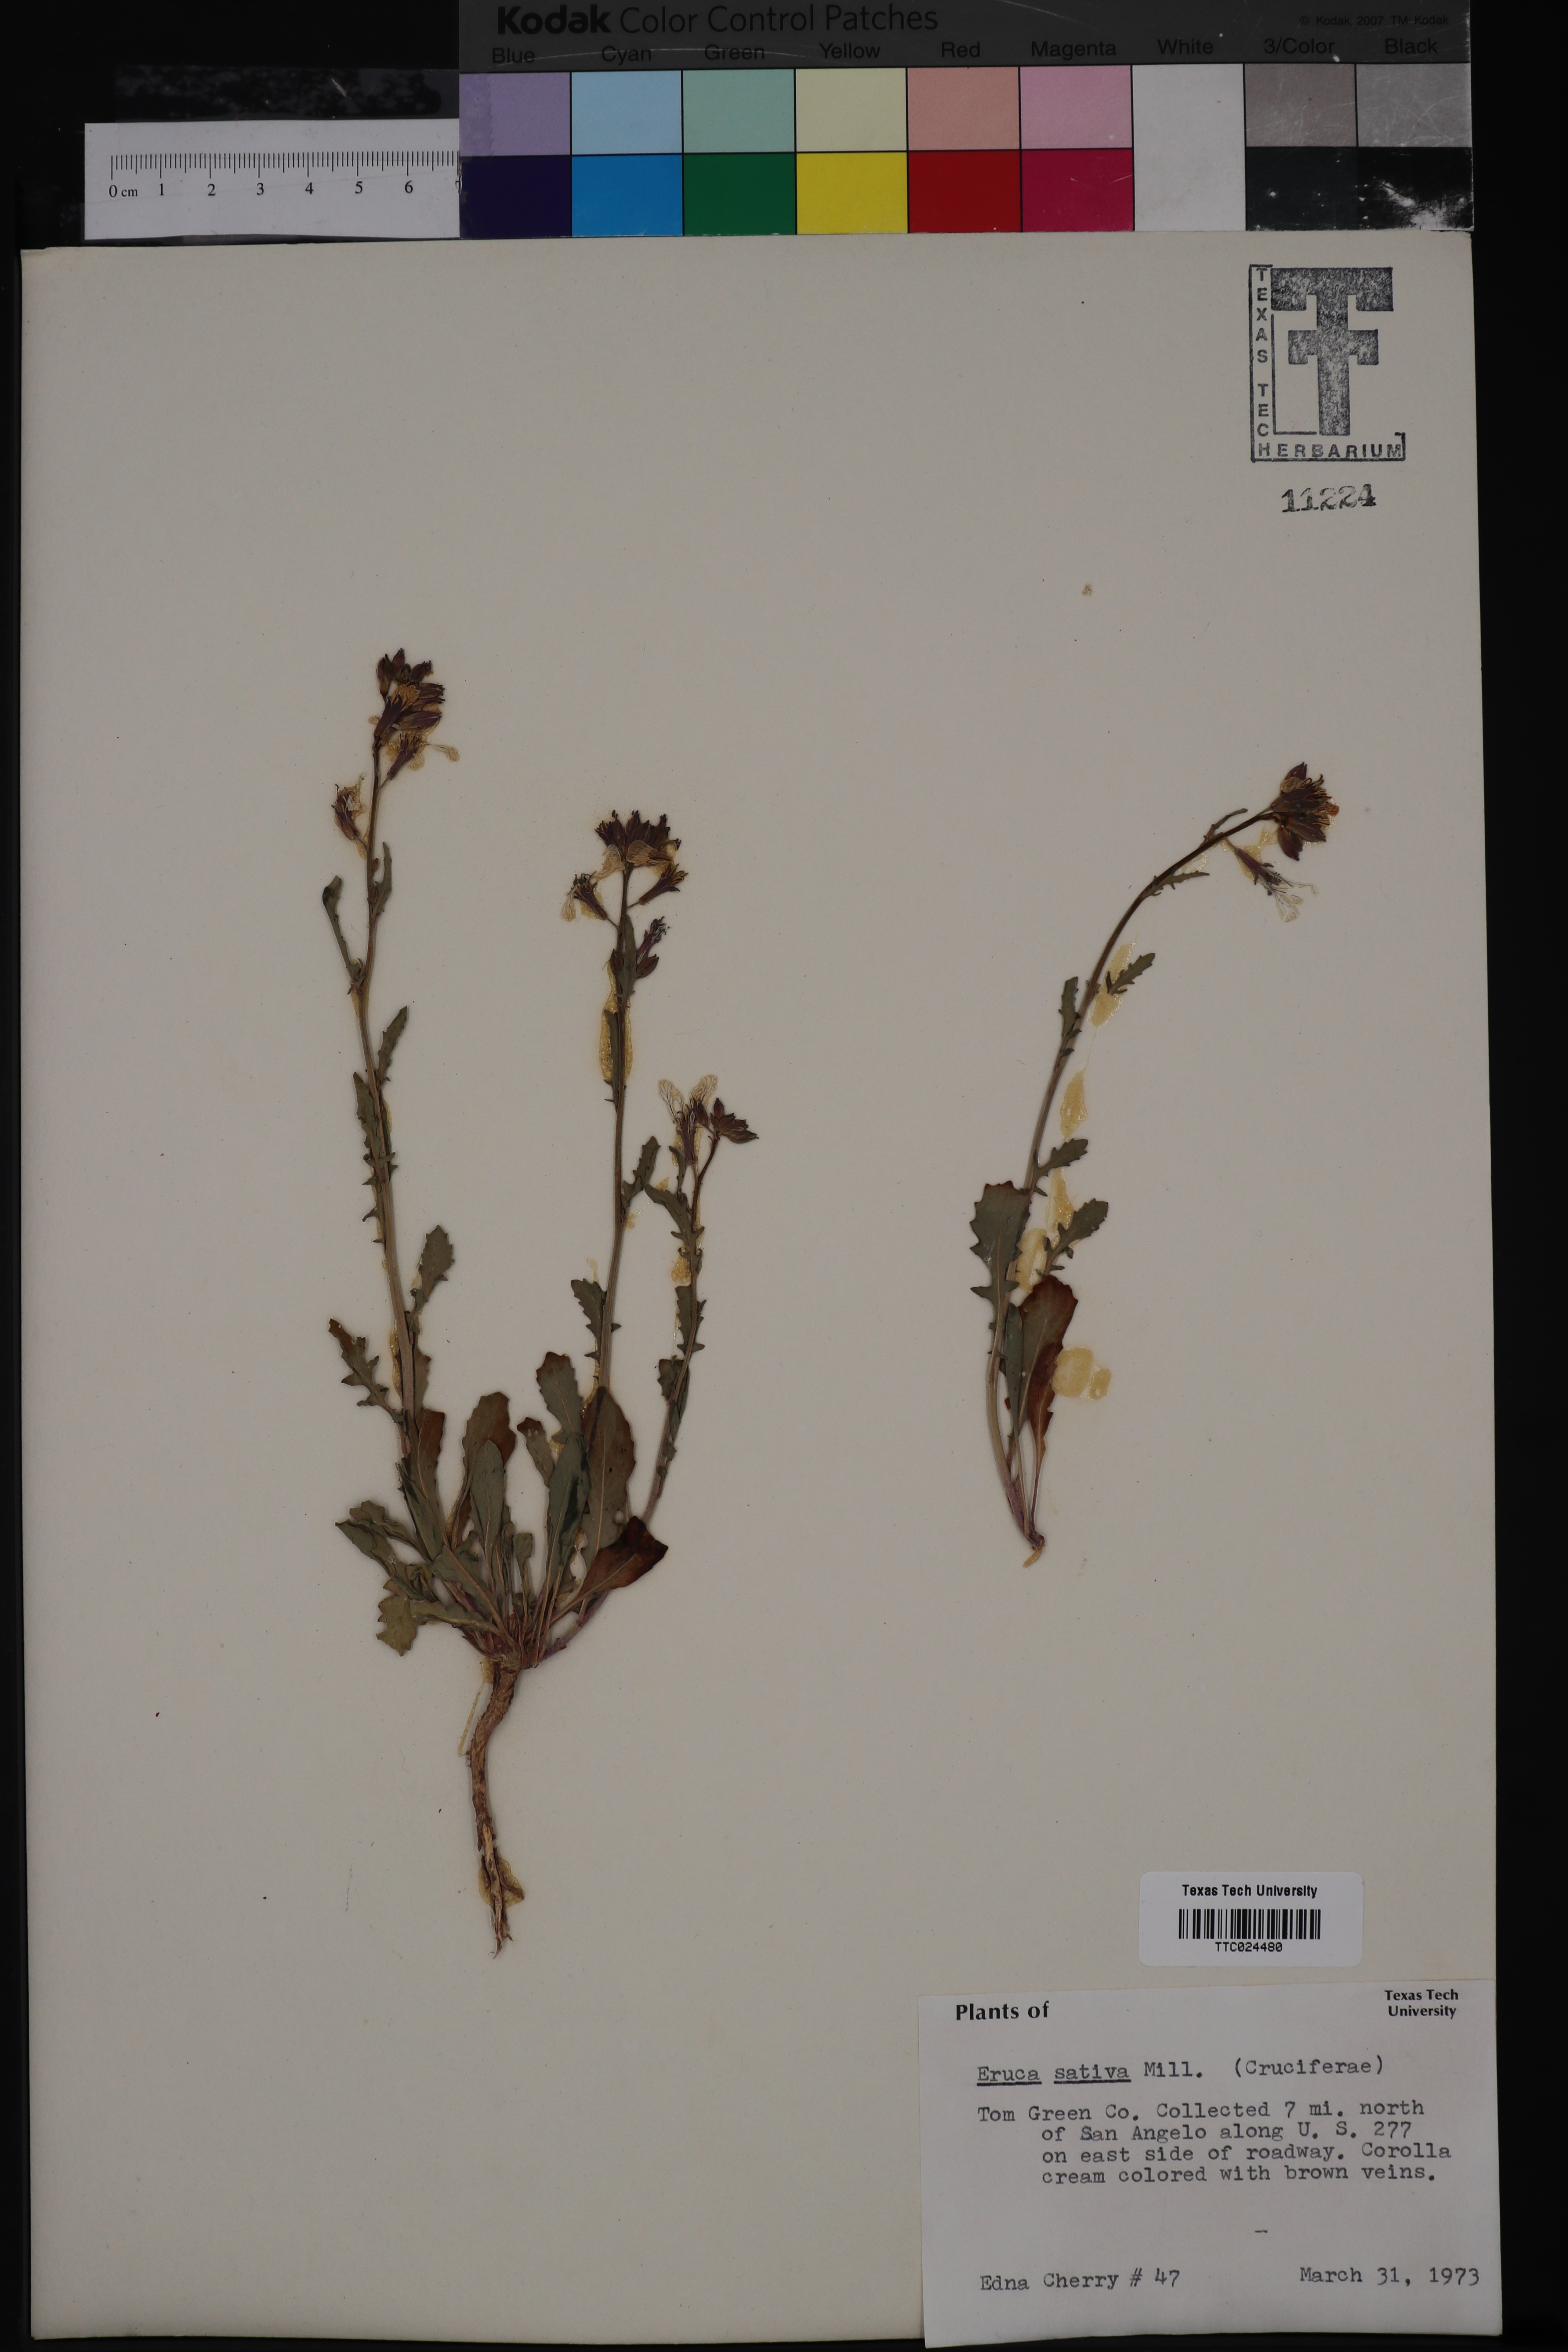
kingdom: Plantae
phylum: Tracheophyta
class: Magnoliopsida
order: Brassicales
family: Brassicaceae
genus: Eruca
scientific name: Eruca vesicaria
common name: Garden rocket
